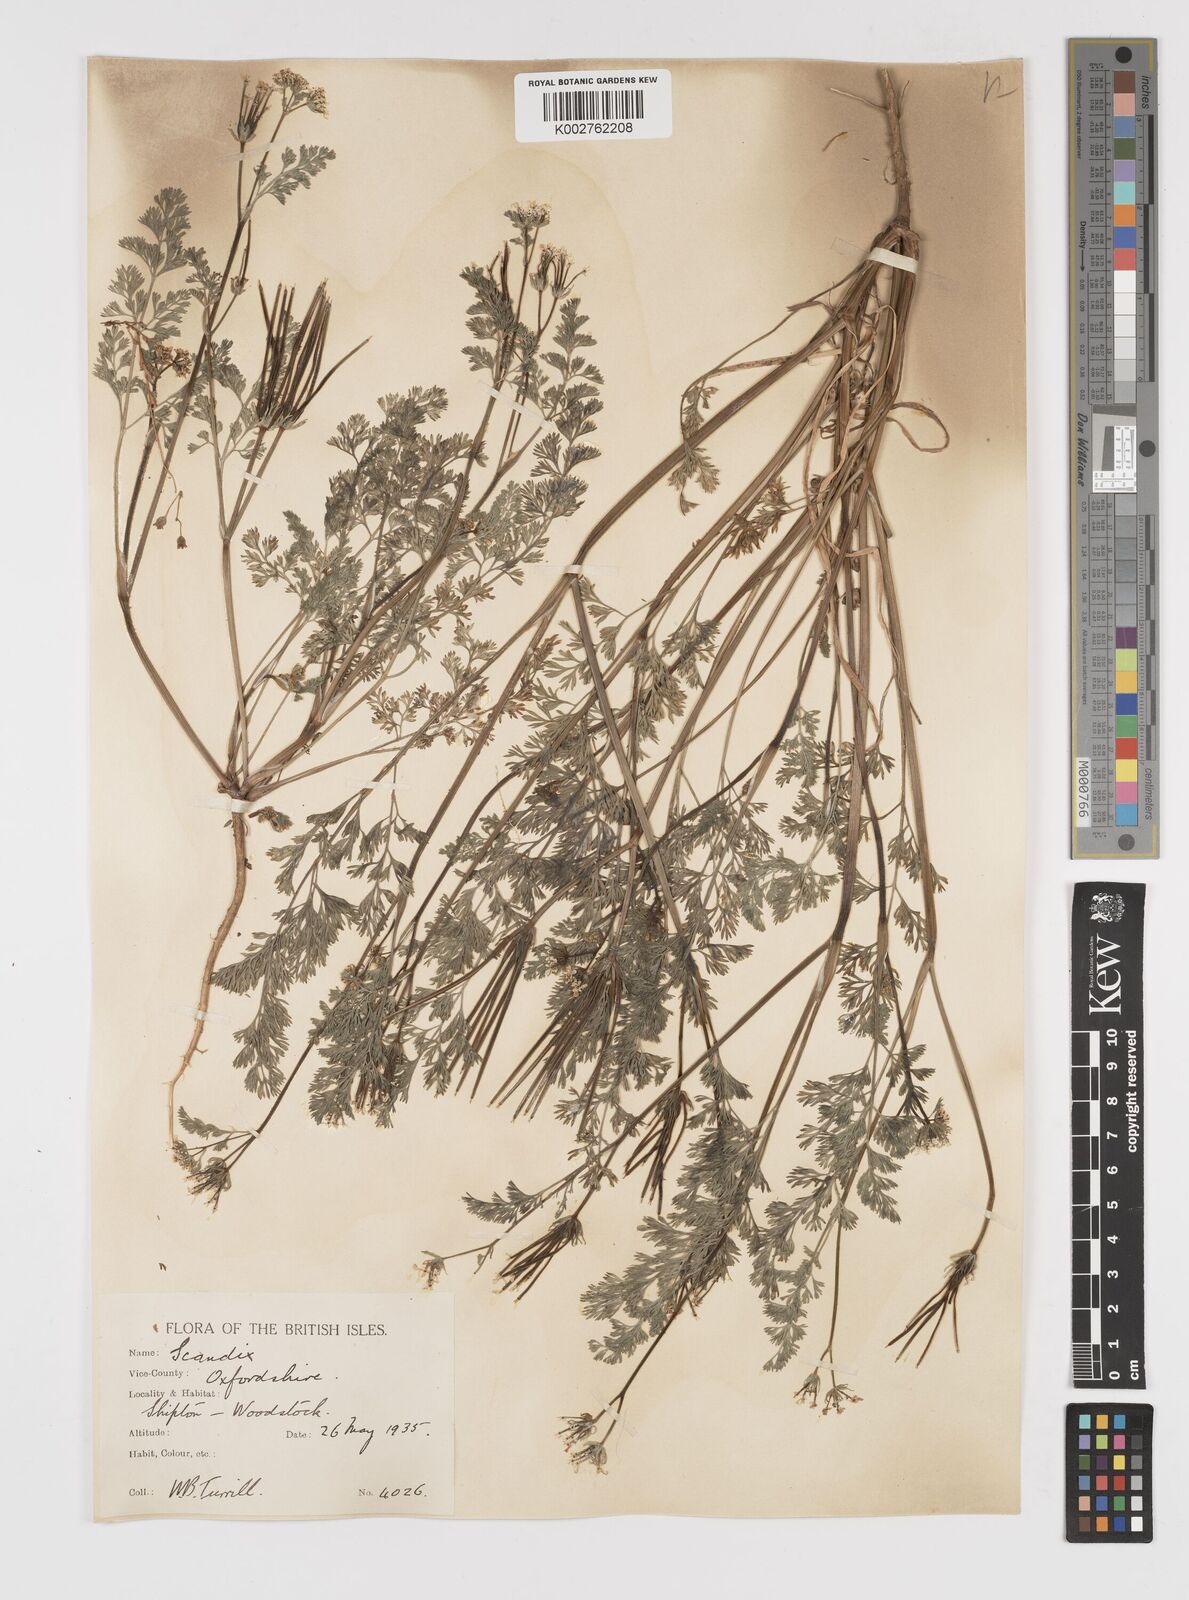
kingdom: Plantae
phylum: Tracheophyta
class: Magnoliopsida
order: Apiales
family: Apiaceae
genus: Scandix
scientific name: Scandix pecten-veneris
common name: Shepherd's-needle
